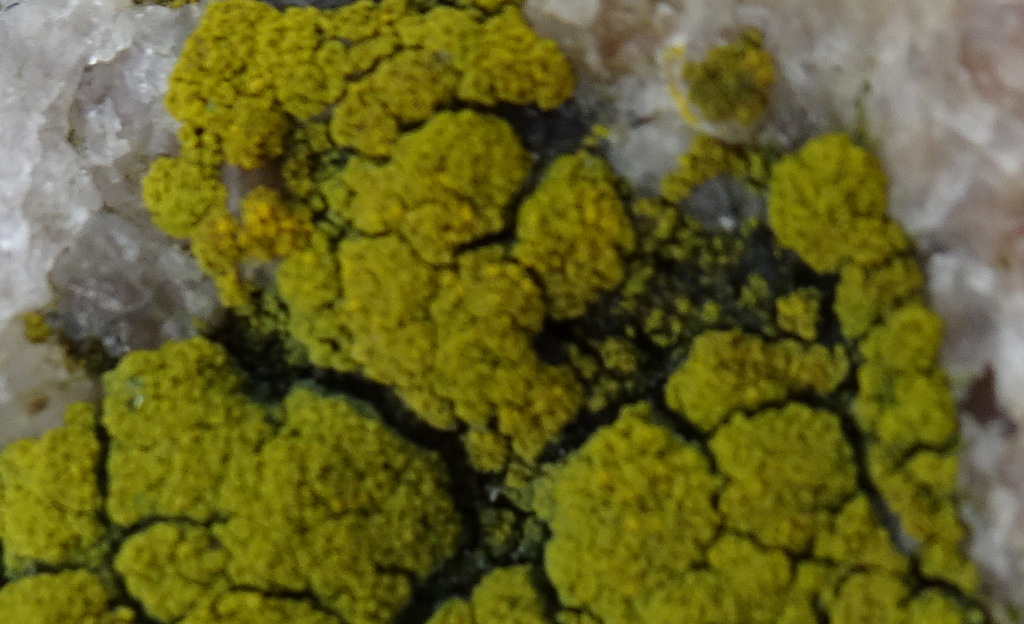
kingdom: Fungi
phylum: Ascomycota
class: Candelariomycetes
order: Candelariales
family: Candelariaceae
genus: Candelariella
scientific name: Candelariella coralliza
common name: pude-æggeblommelav
